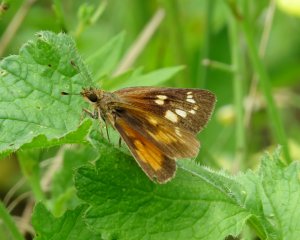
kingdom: Animalia
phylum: Arthropoda
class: Insecta
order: Lepidoptera
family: Hesperiidae
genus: Poanes
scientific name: Poanes viator
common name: Broad-winged Skipper
